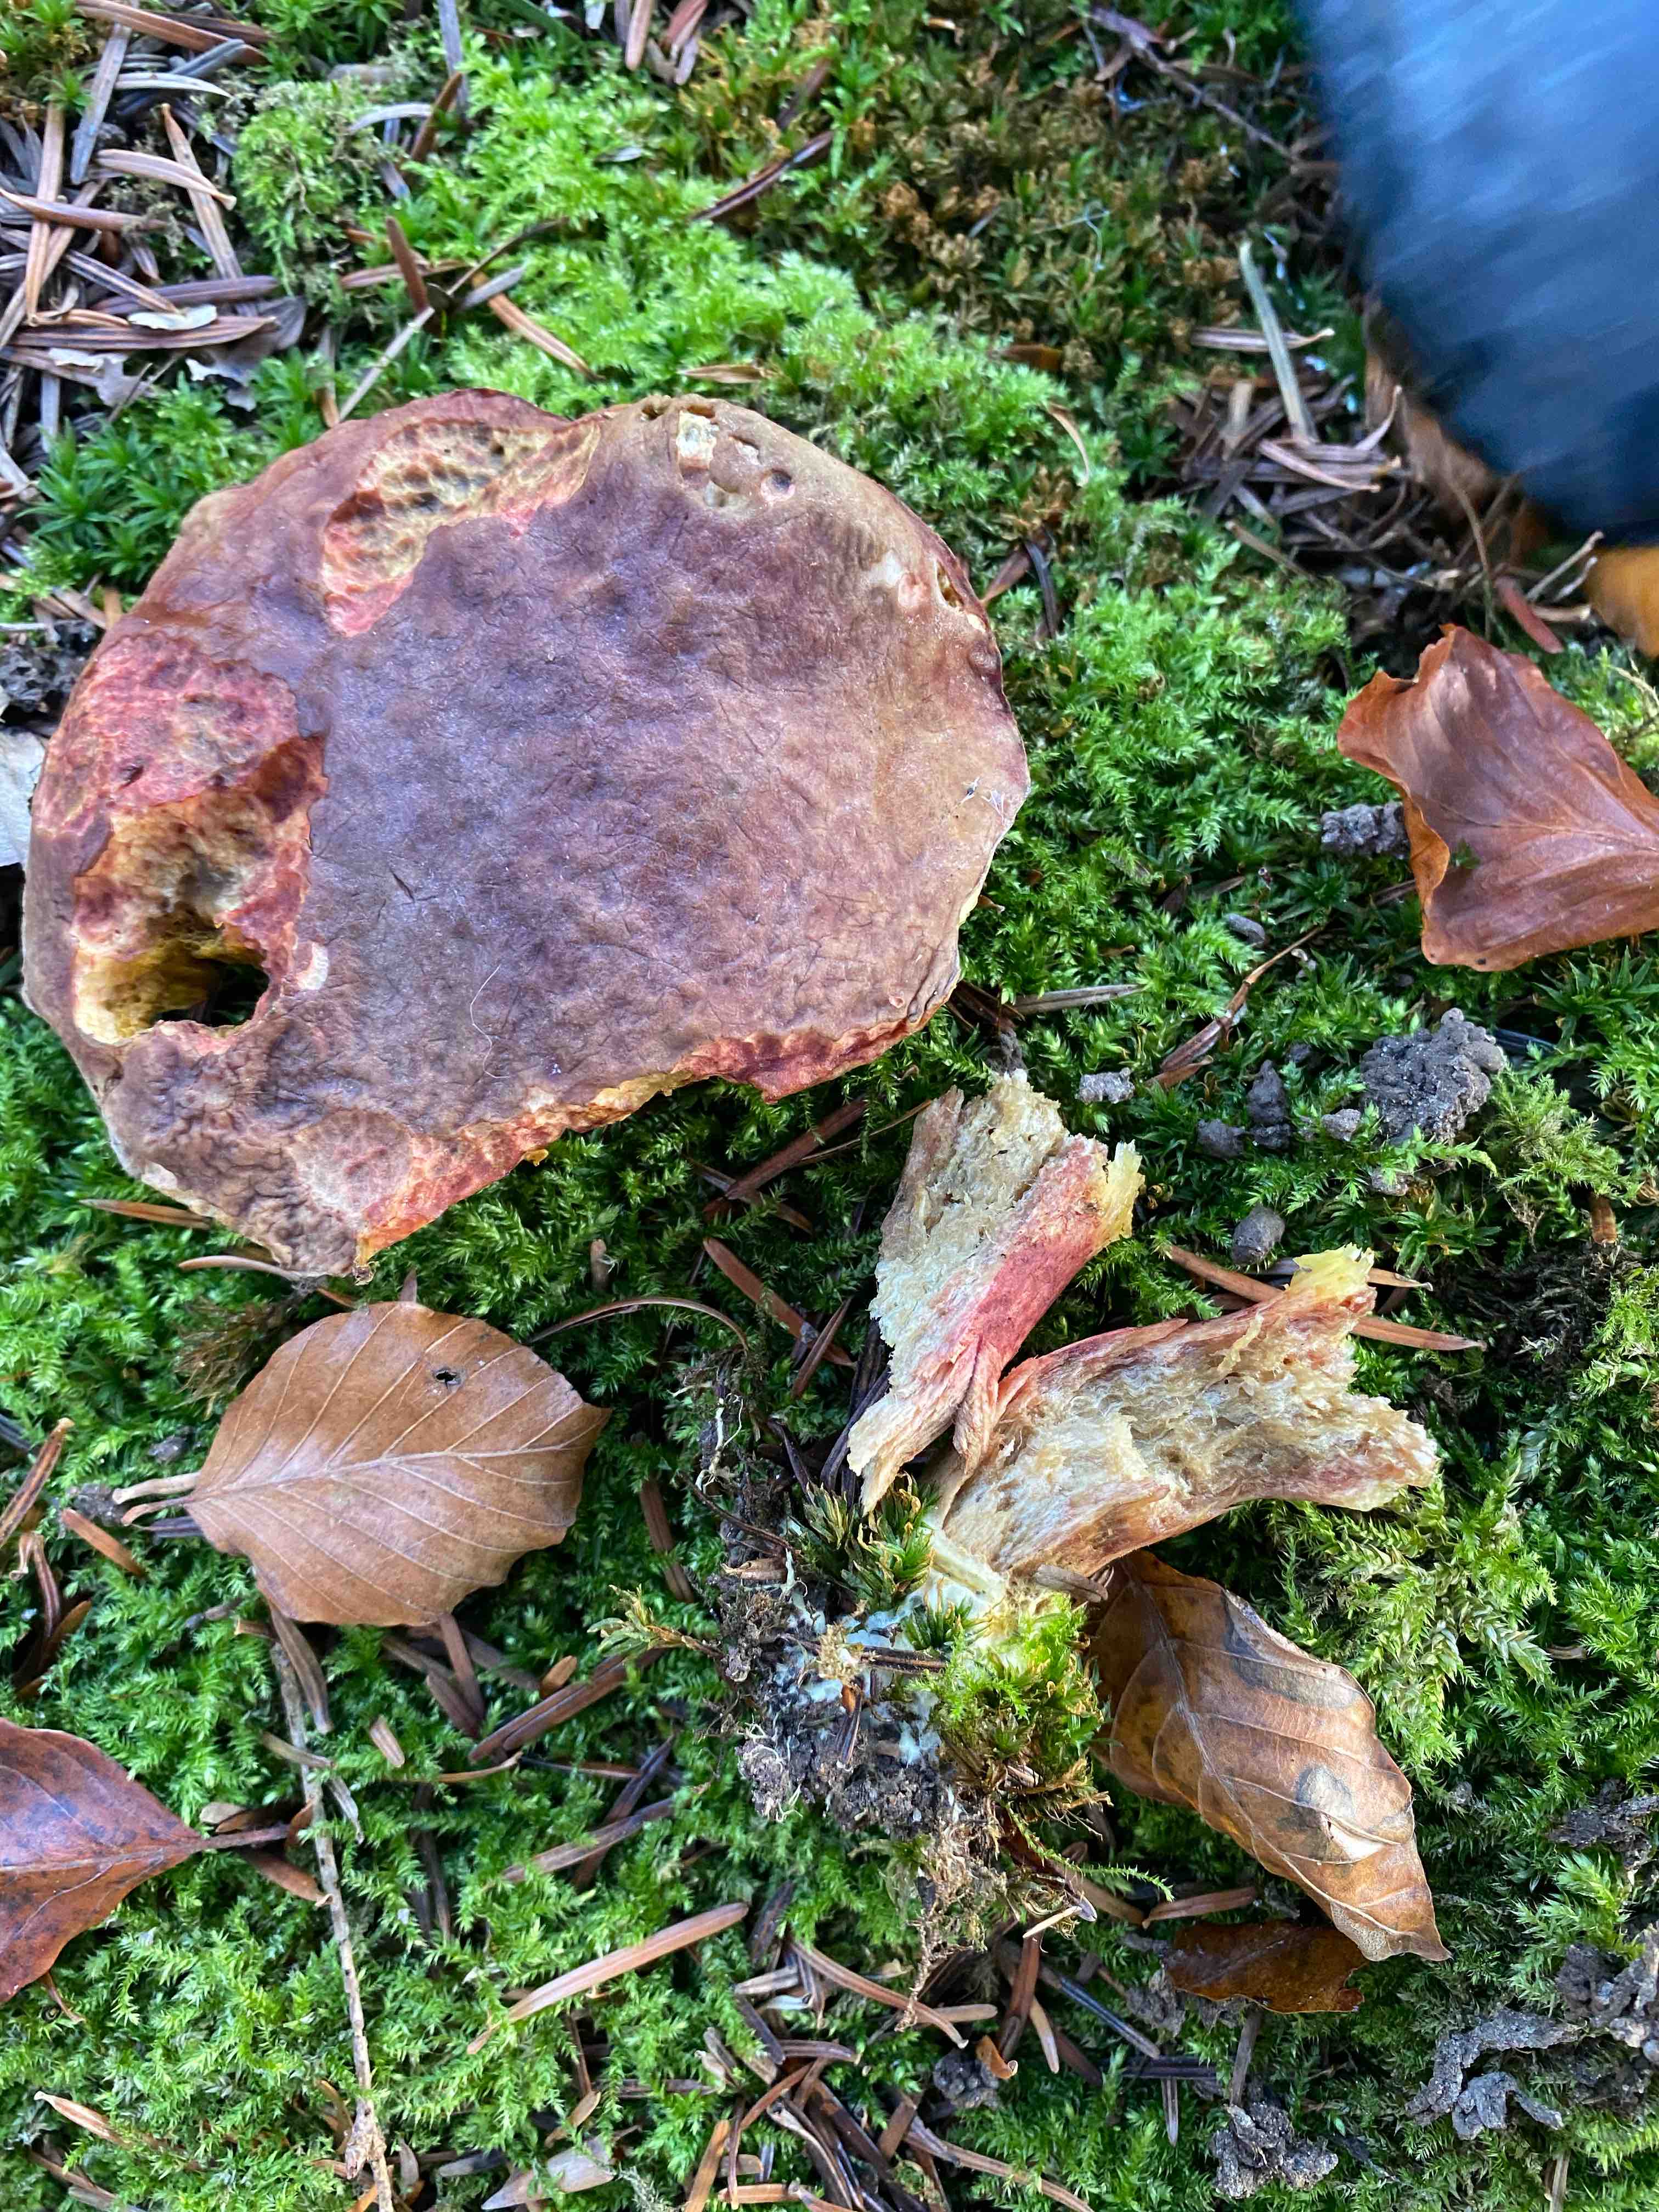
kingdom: Fungi
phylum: Basidiomycota
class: Agaricomycetes
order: Boletales
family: Boletaceae
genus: Xerocomellus
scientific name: Xerocomellus
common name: dværgrørhat
